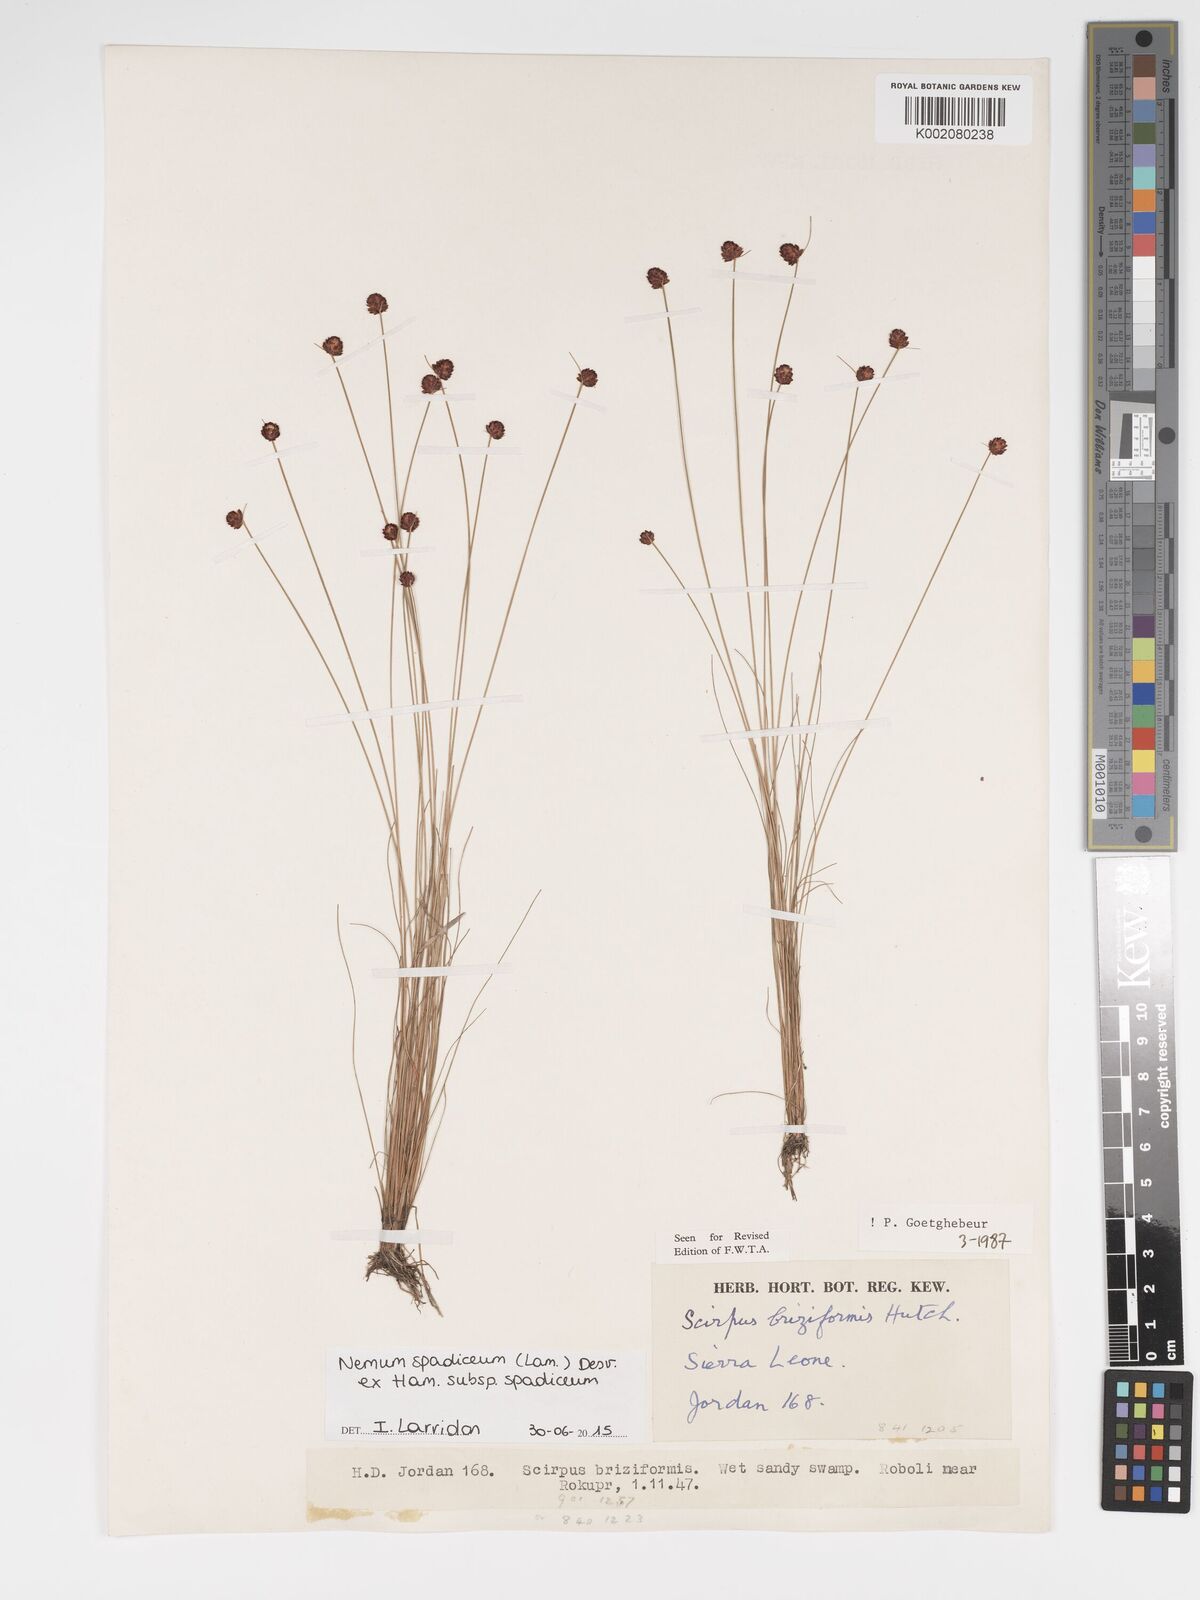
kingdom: Plantae
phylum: Tracheophyta
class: Liliopsida
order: Poales
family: Cyperaceae
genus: Bulbostylis
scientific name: Bulbostylis briziformis
